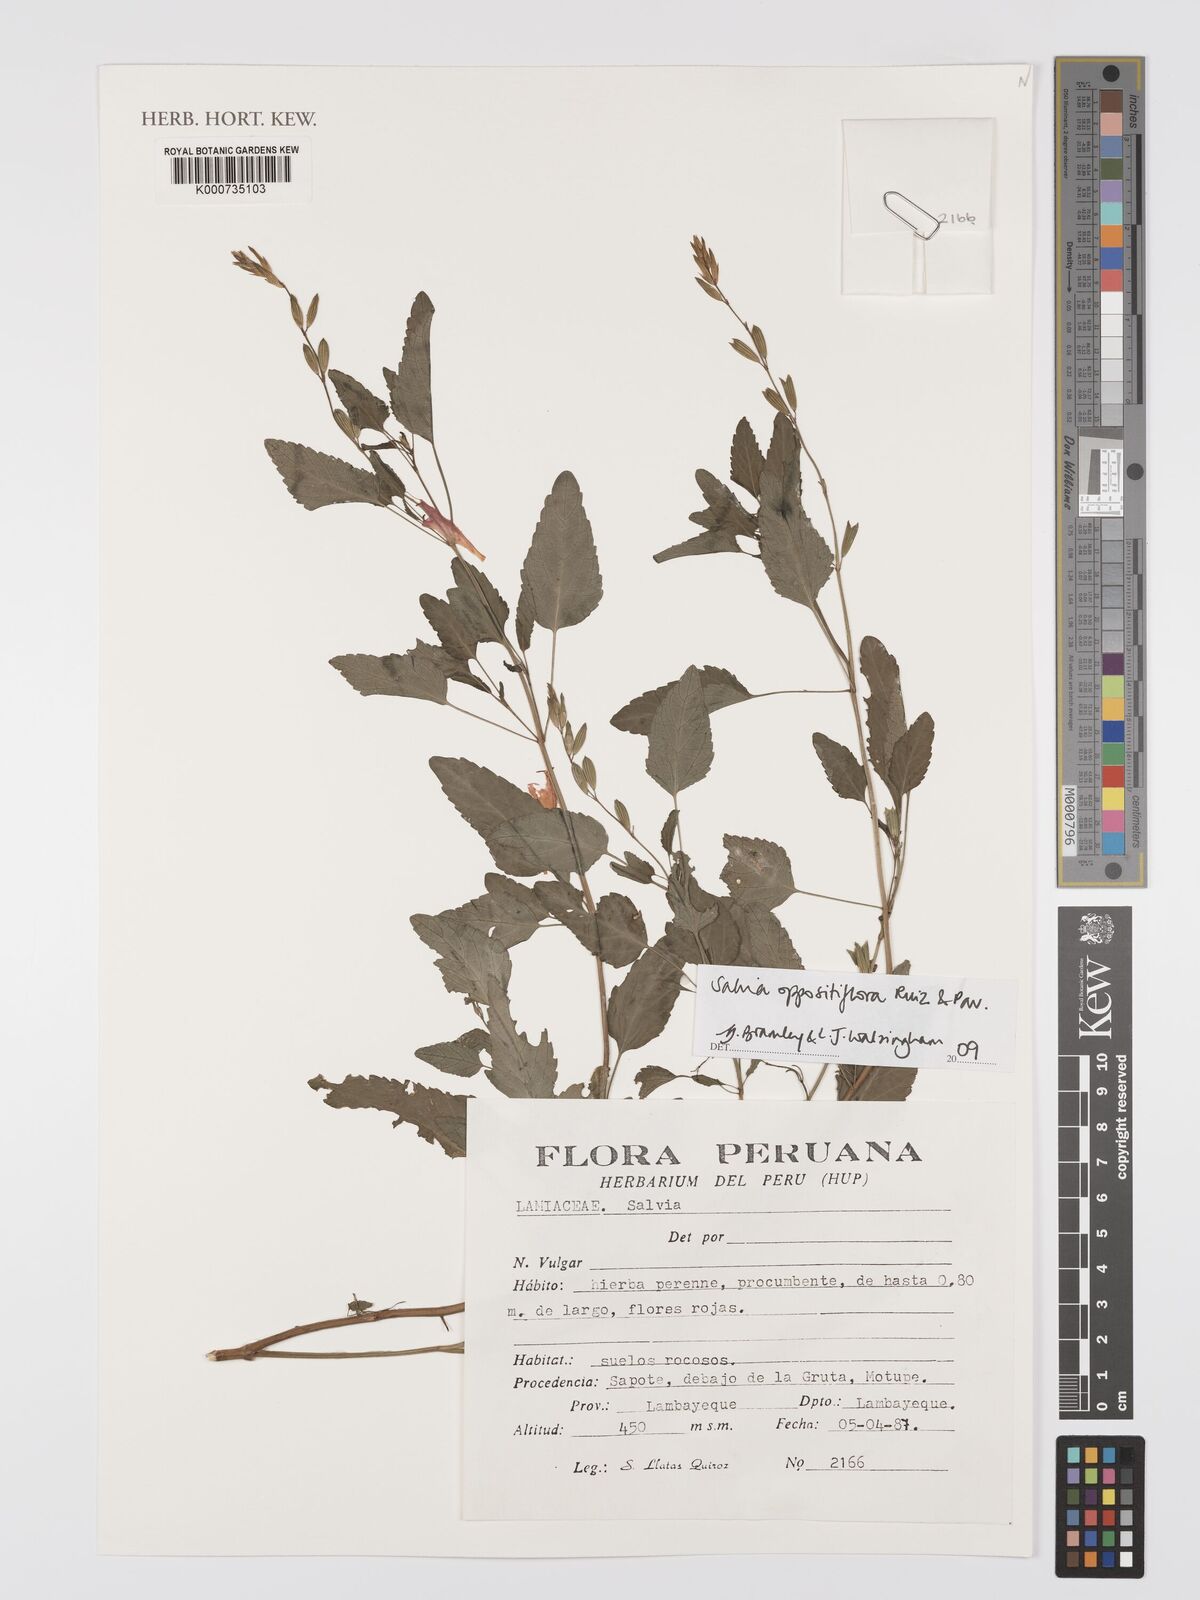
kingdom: Plantae
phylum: Tracheophyta
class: Magnoliopsida
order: Lamiales
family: Lamiaceae
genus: Salvia
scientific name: Salvia oppositiflora
